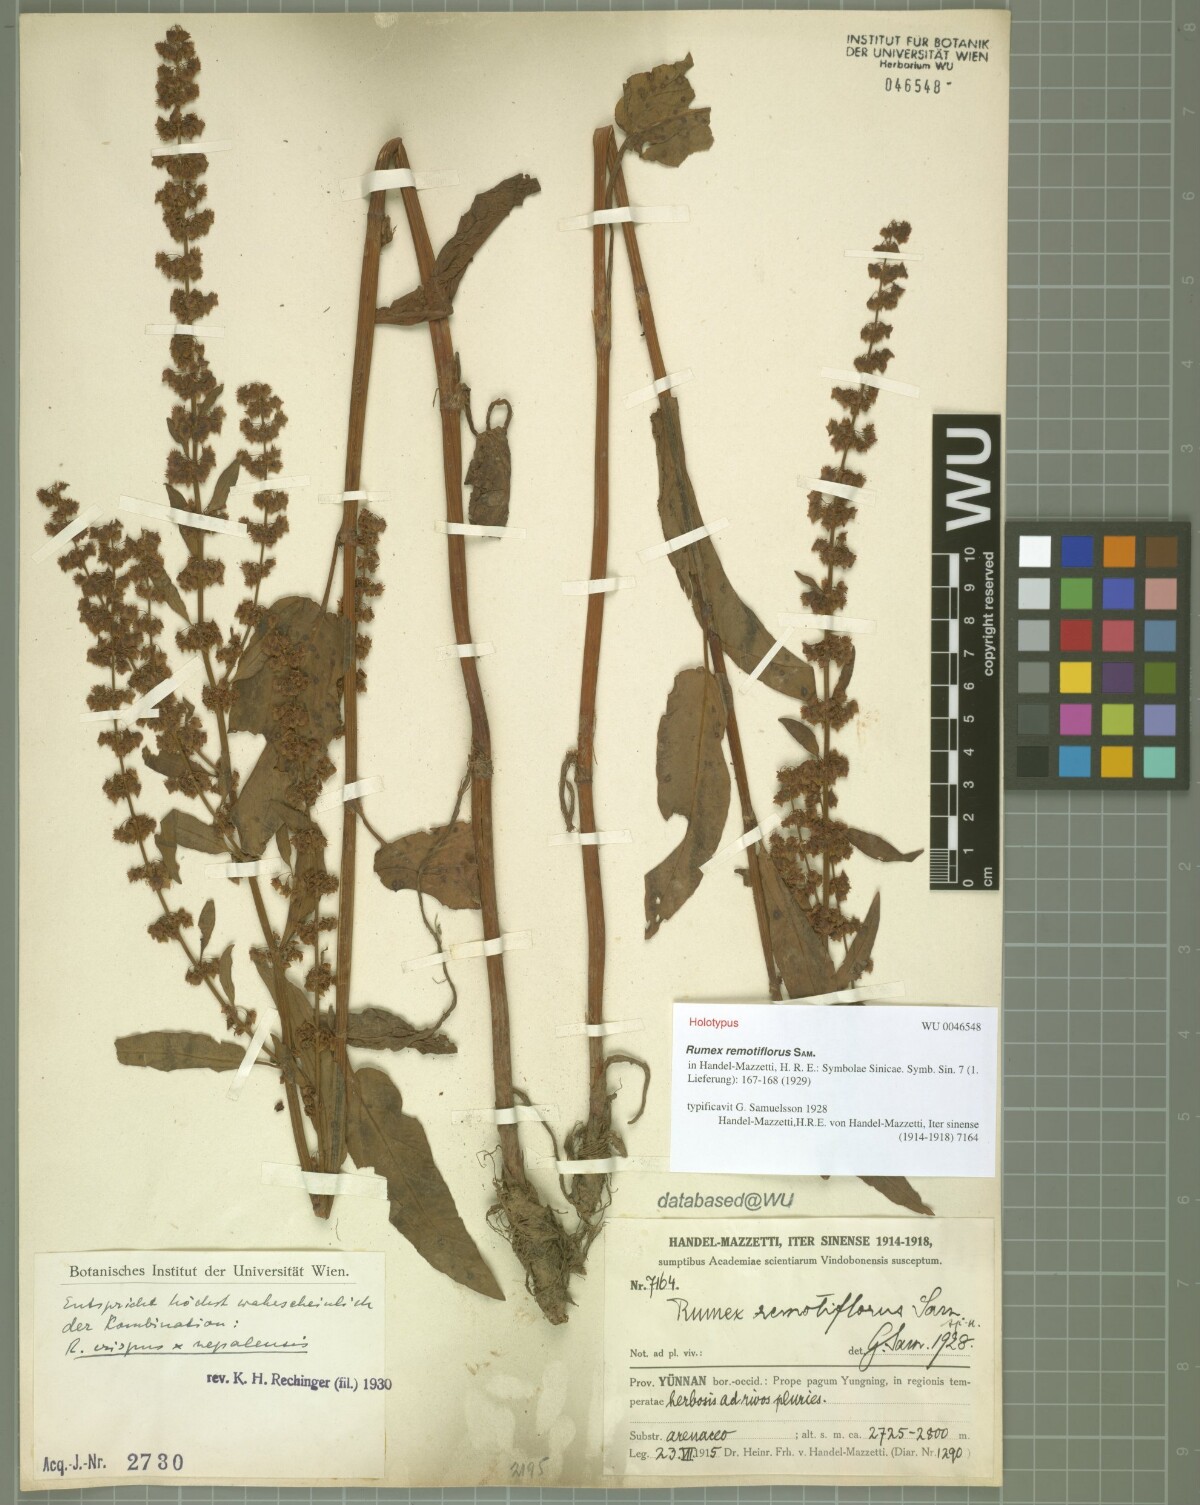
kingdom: Plantae
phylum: Tracheophyta
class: Magnoliopsida
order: Caryophyllales
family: Polygonaceae
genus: Rumex
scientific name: Rumex nepalensis
